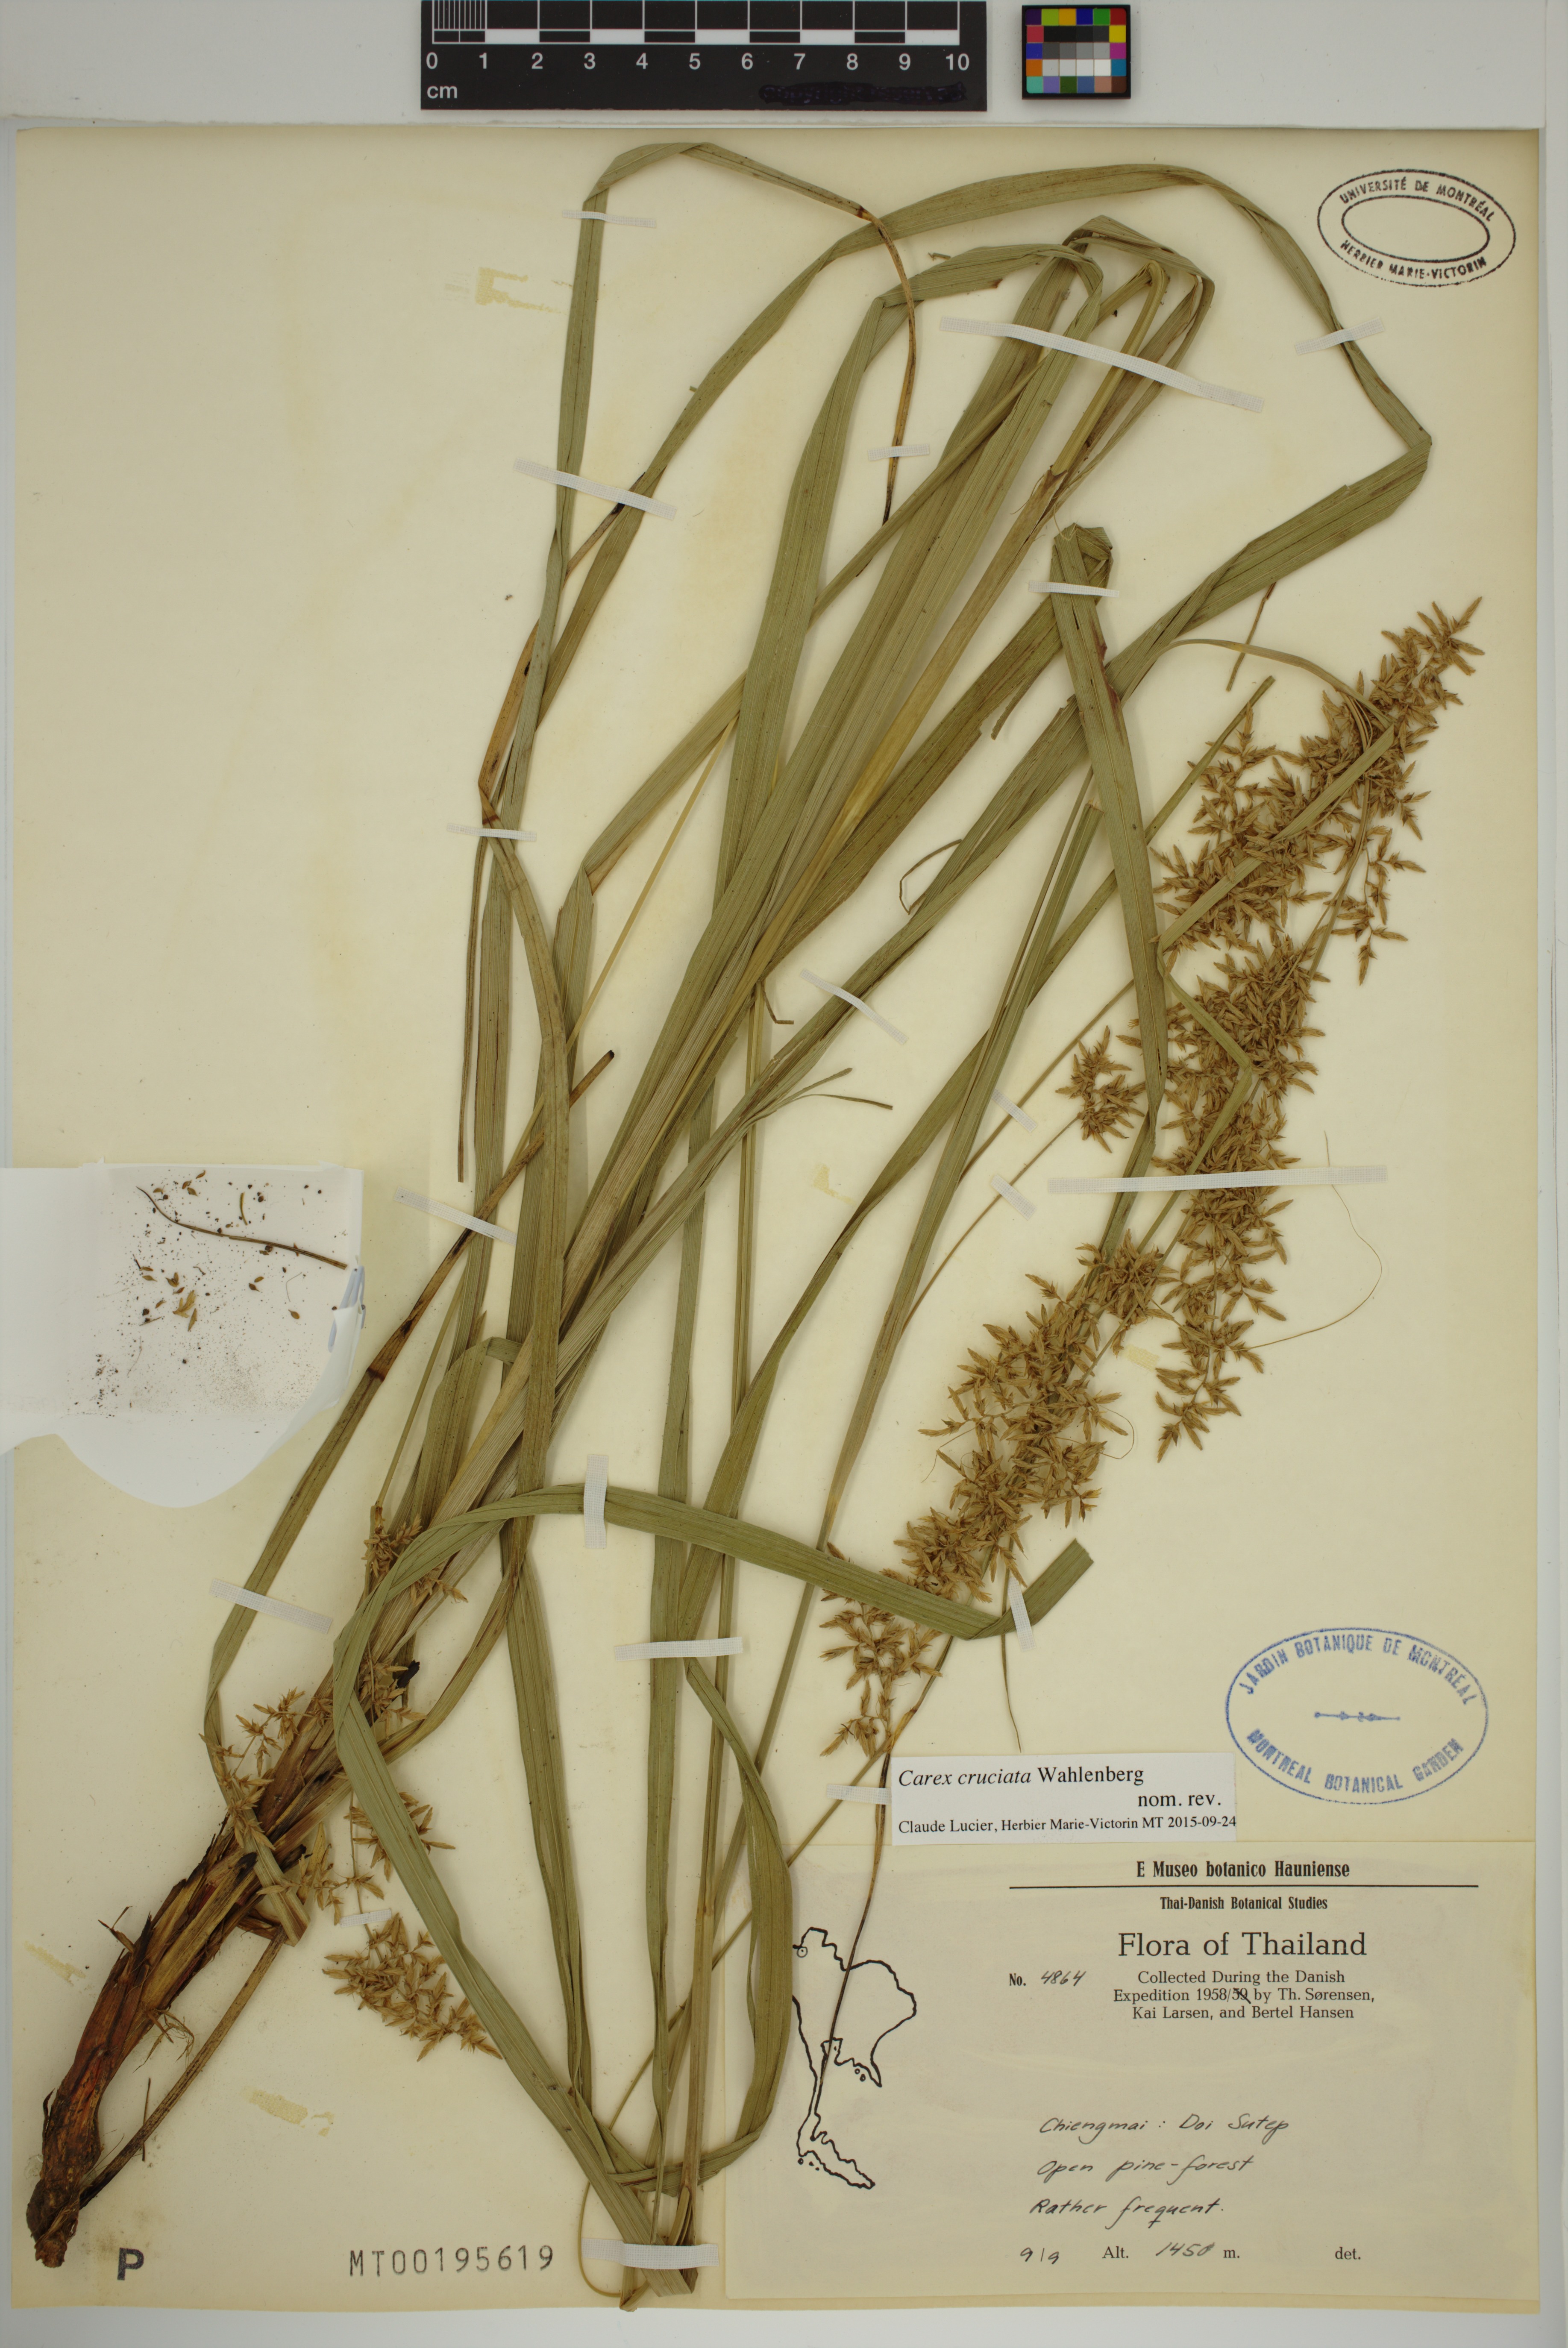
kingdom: Plantae
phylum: Tracheophyta
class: Liliopsida
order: Poales
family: Cyperaceae
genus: Carex
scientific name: Carex cruciata
